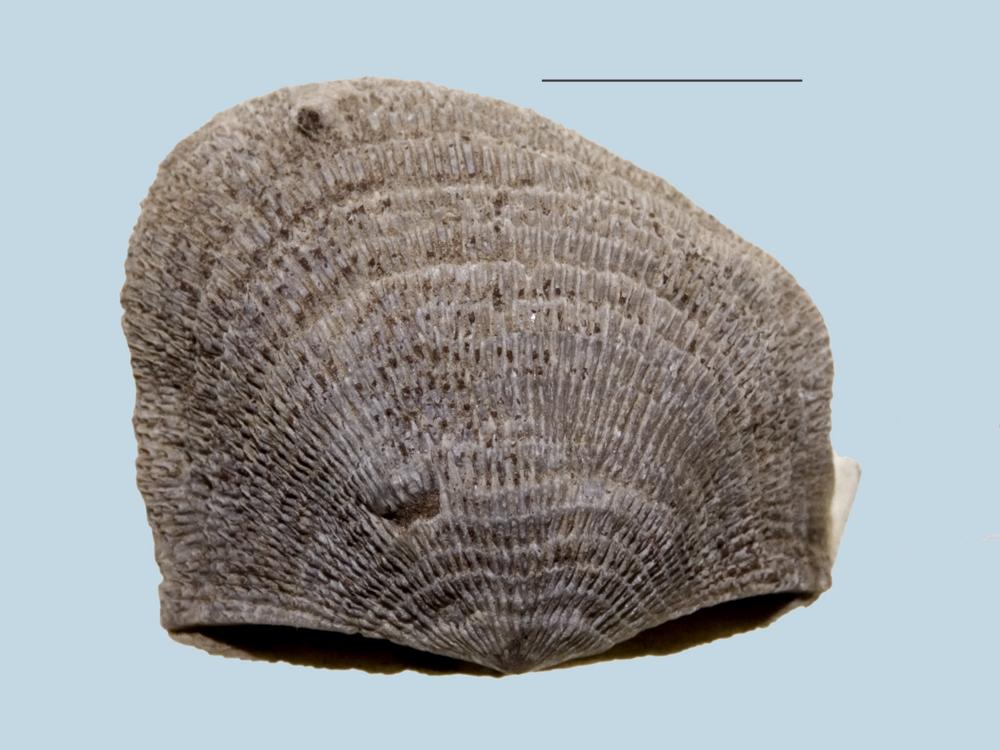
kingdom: Animalia
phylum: Brachiopoda
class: Rhynchonellata
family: Clitambonitidae
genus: Clitambonites
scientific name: Clitambonites maximus
